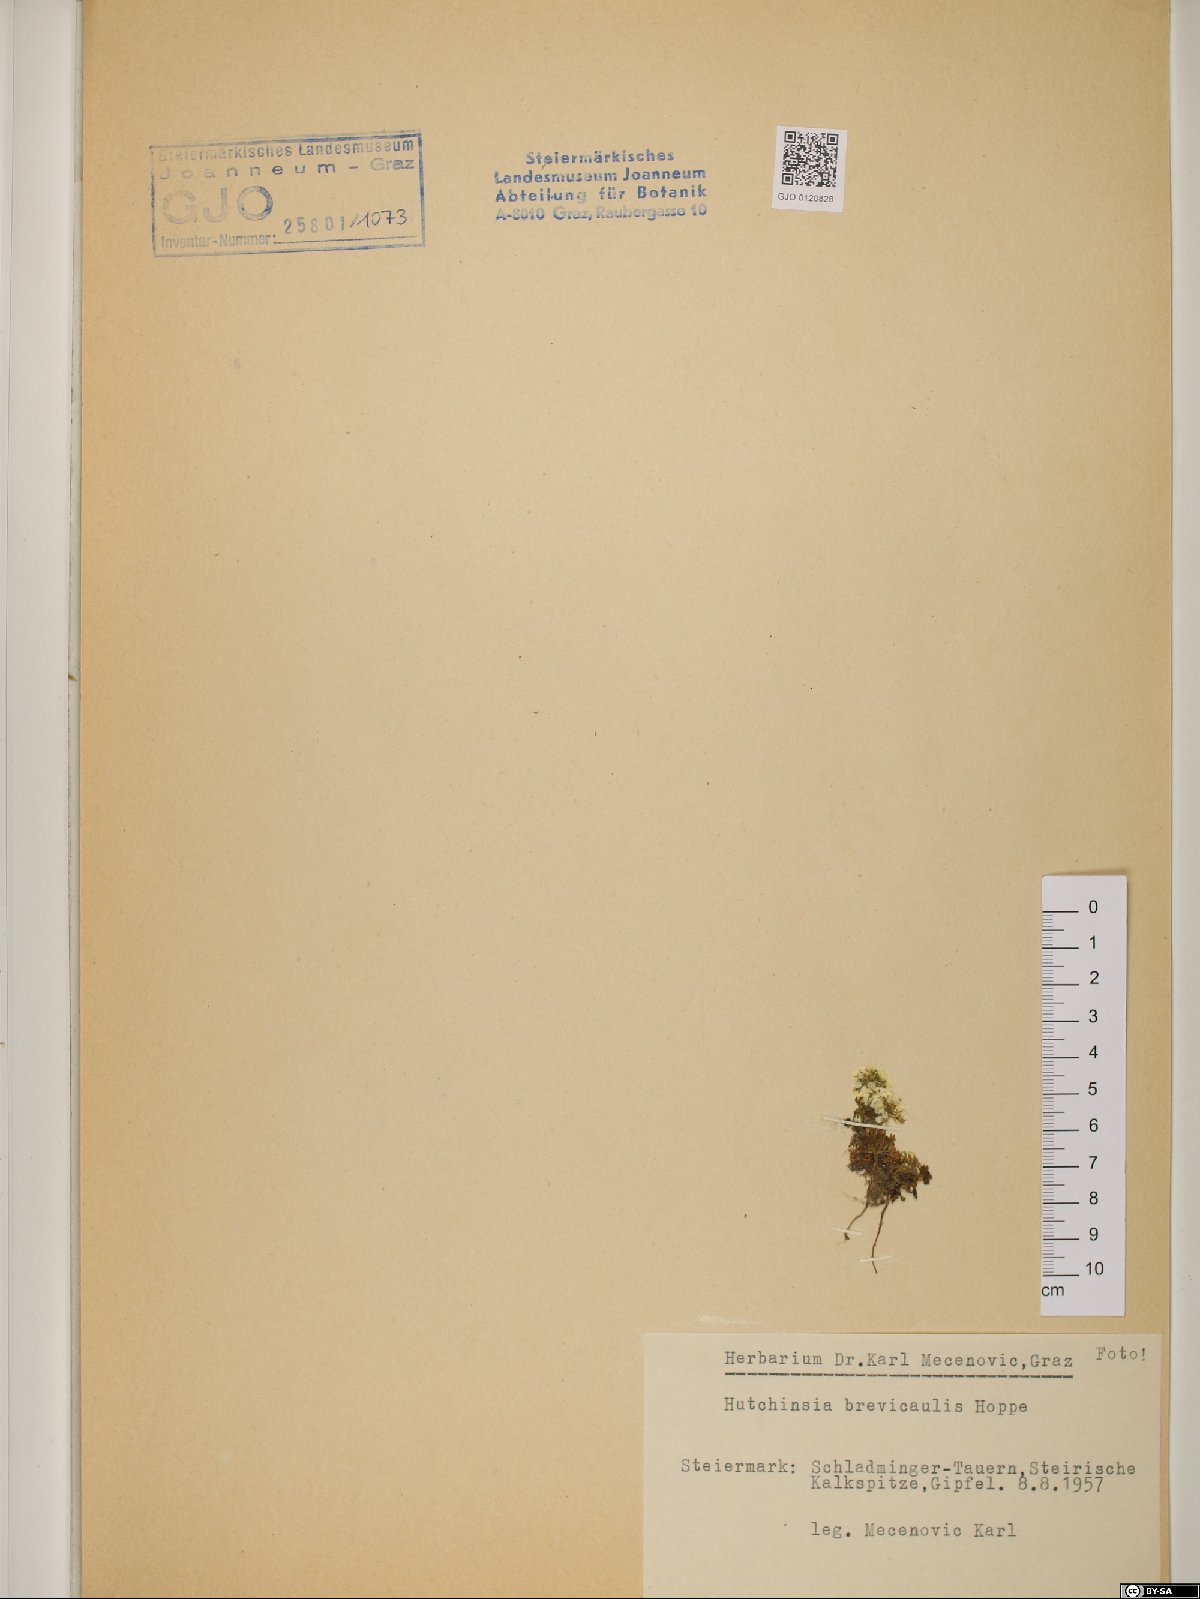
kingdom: Plantae
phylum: Tracheophyta
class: Magnoliopsida
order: Brassicales
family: Brassicaceae
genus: Hornungia
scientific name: Hornungia alpina
